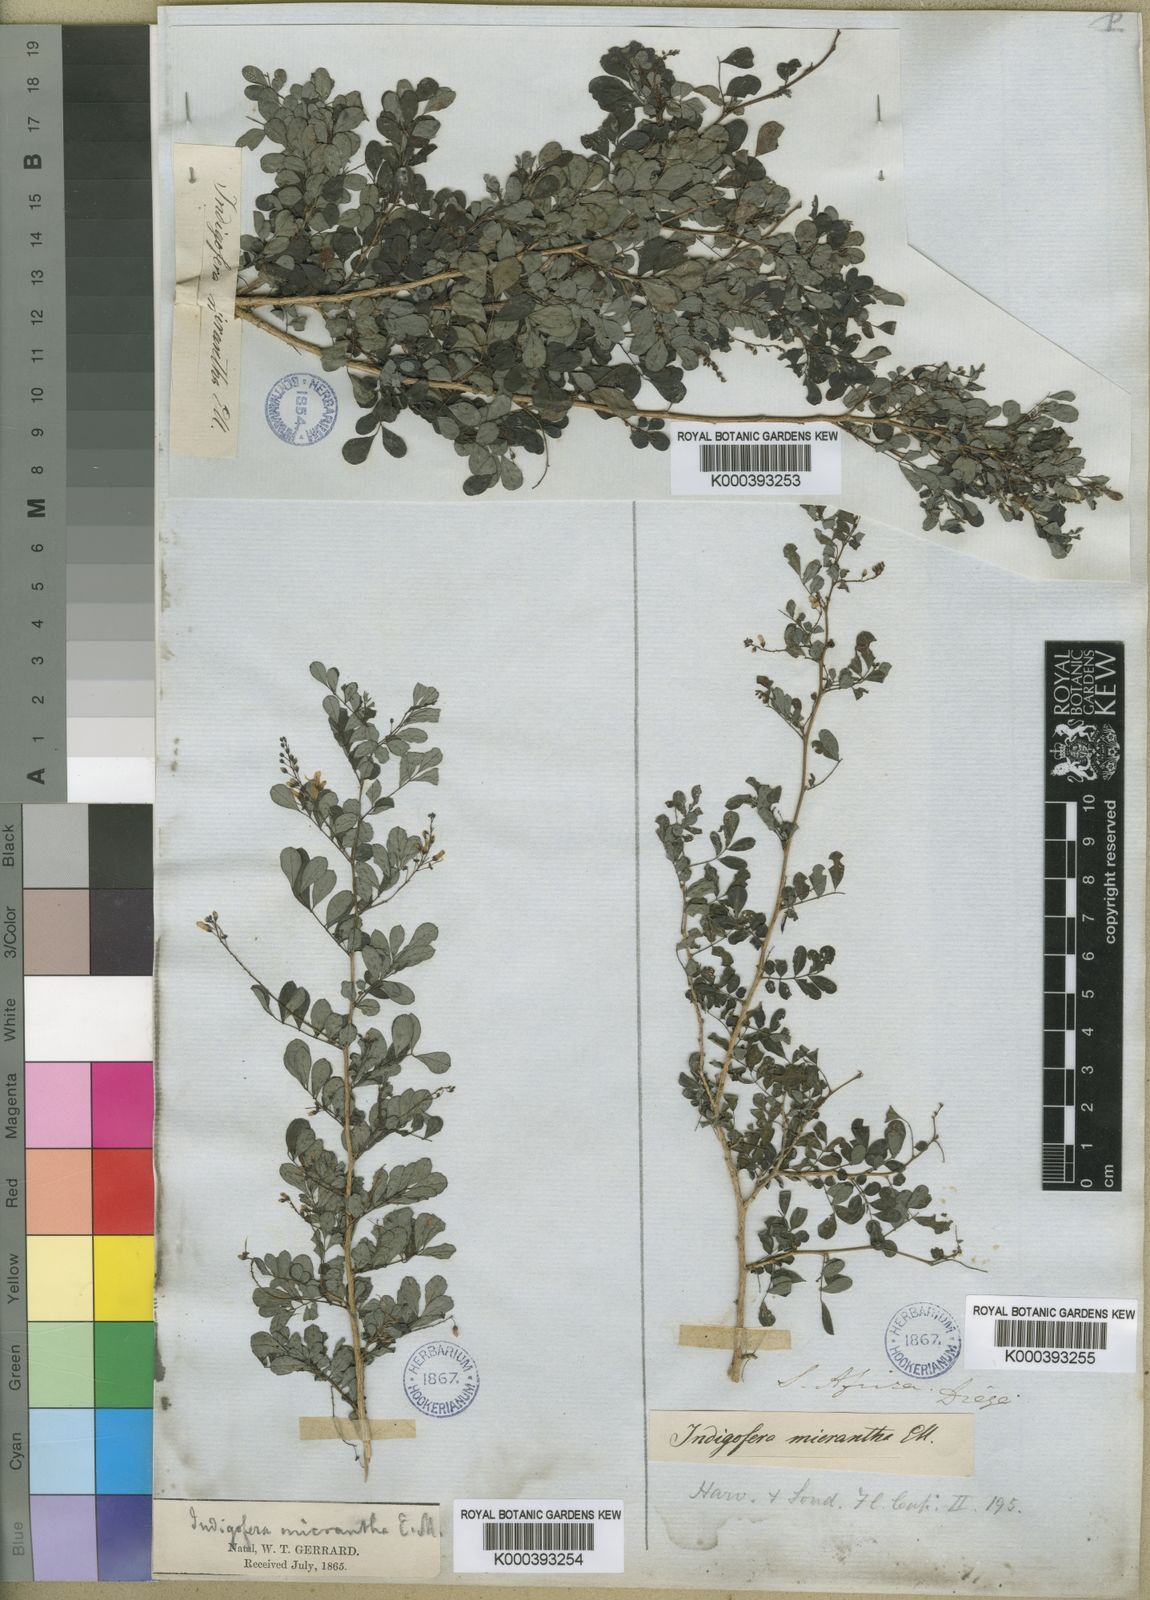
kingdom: Plantae
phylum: Tracheophyta
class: Magnoliopsida
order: Fabales
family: Fabaceae
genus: Indigofera
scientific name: Indigofera micrantha
